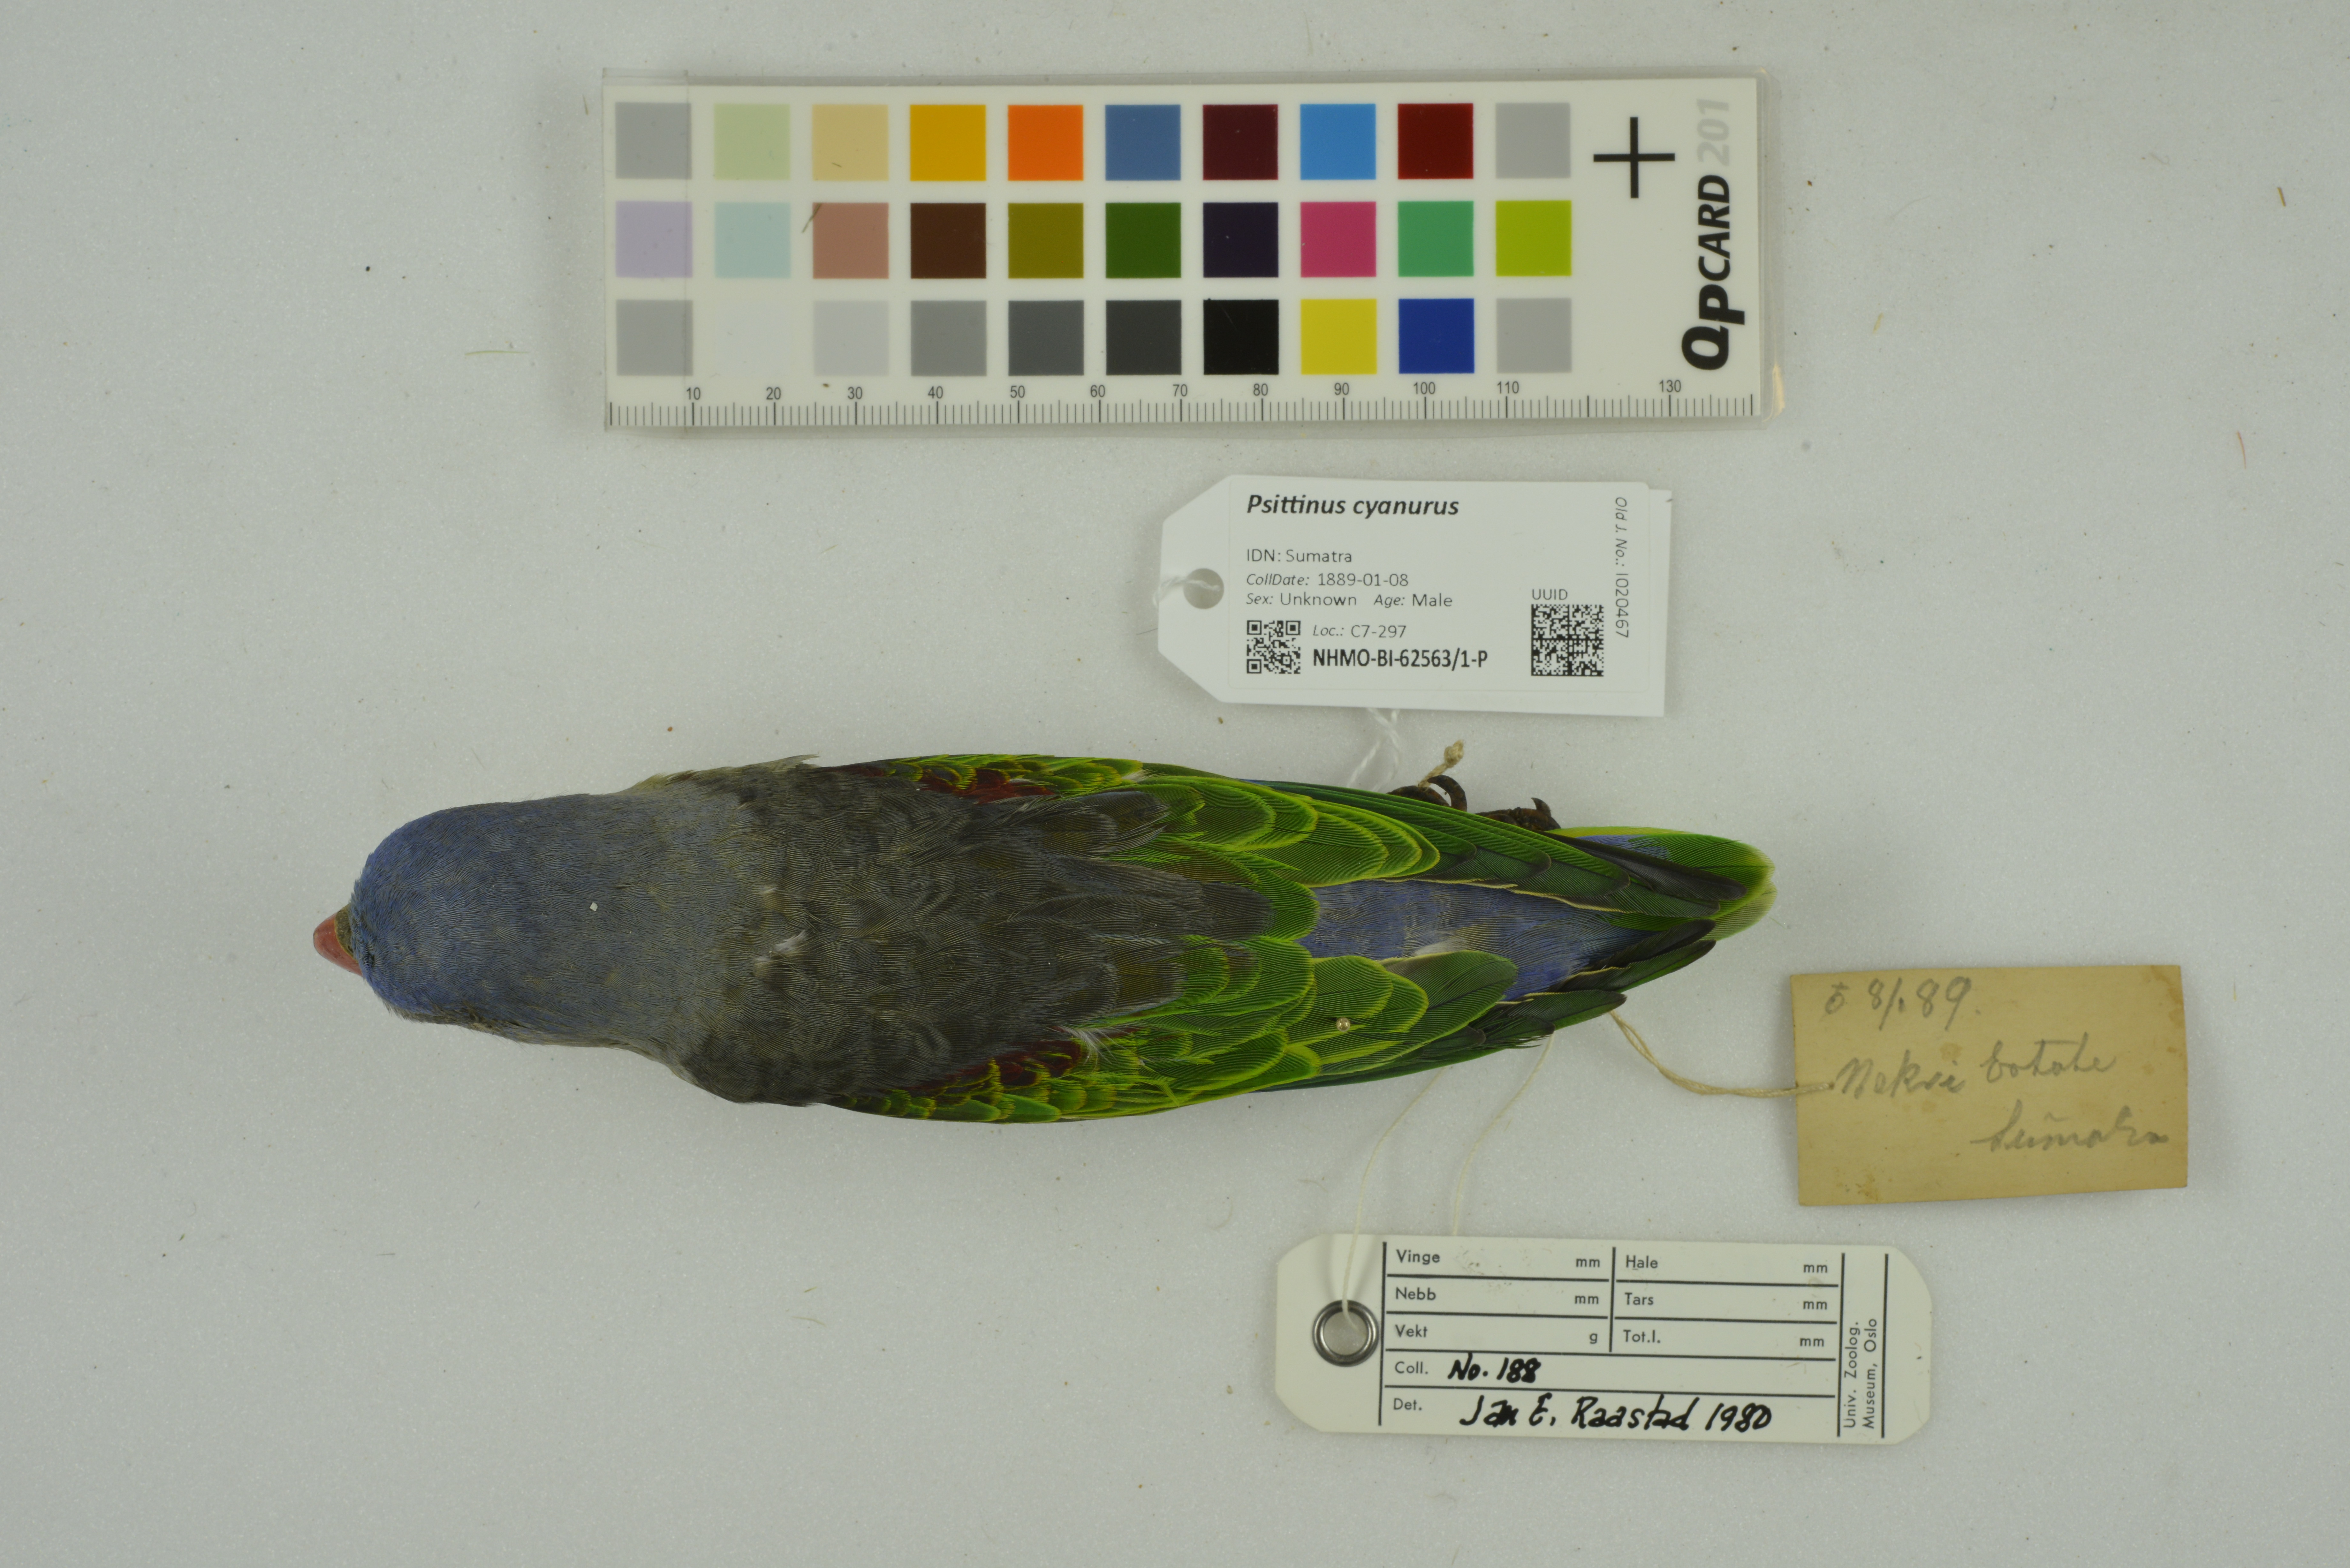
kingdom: Animalia
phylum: Chordata
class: Aves
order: Psittaciformes
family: Psittacidae
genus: Psittinus
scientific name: Psittinus cyanurus
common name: Blue-rumped parrot
